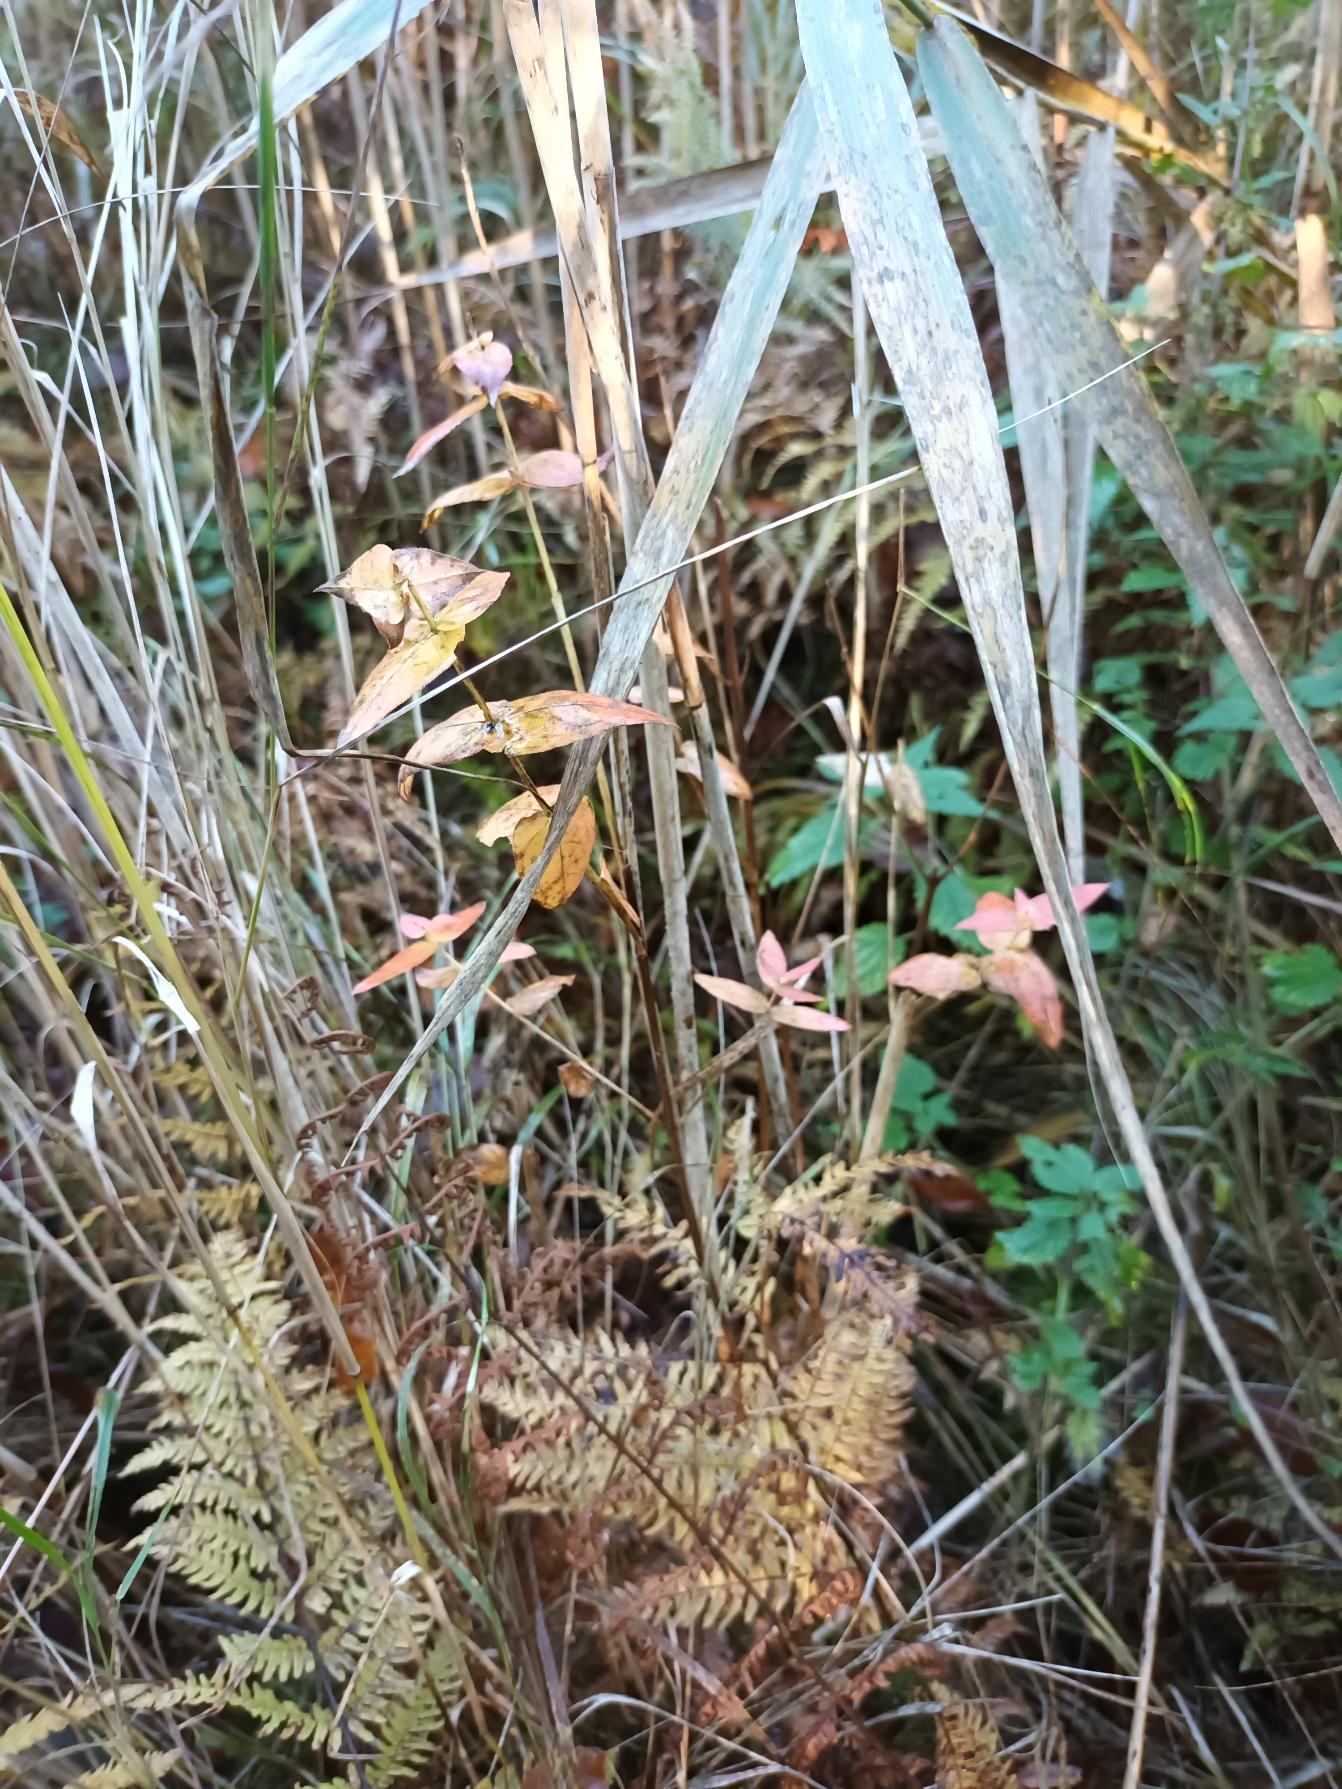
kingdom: Plantae
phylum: Tracheophyta
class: Magnoliopsida
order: Lamiales
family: Lamiaceae
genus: Scutellaria
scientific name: Scutellaria galericulata
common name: Almindelig skjolddrager
